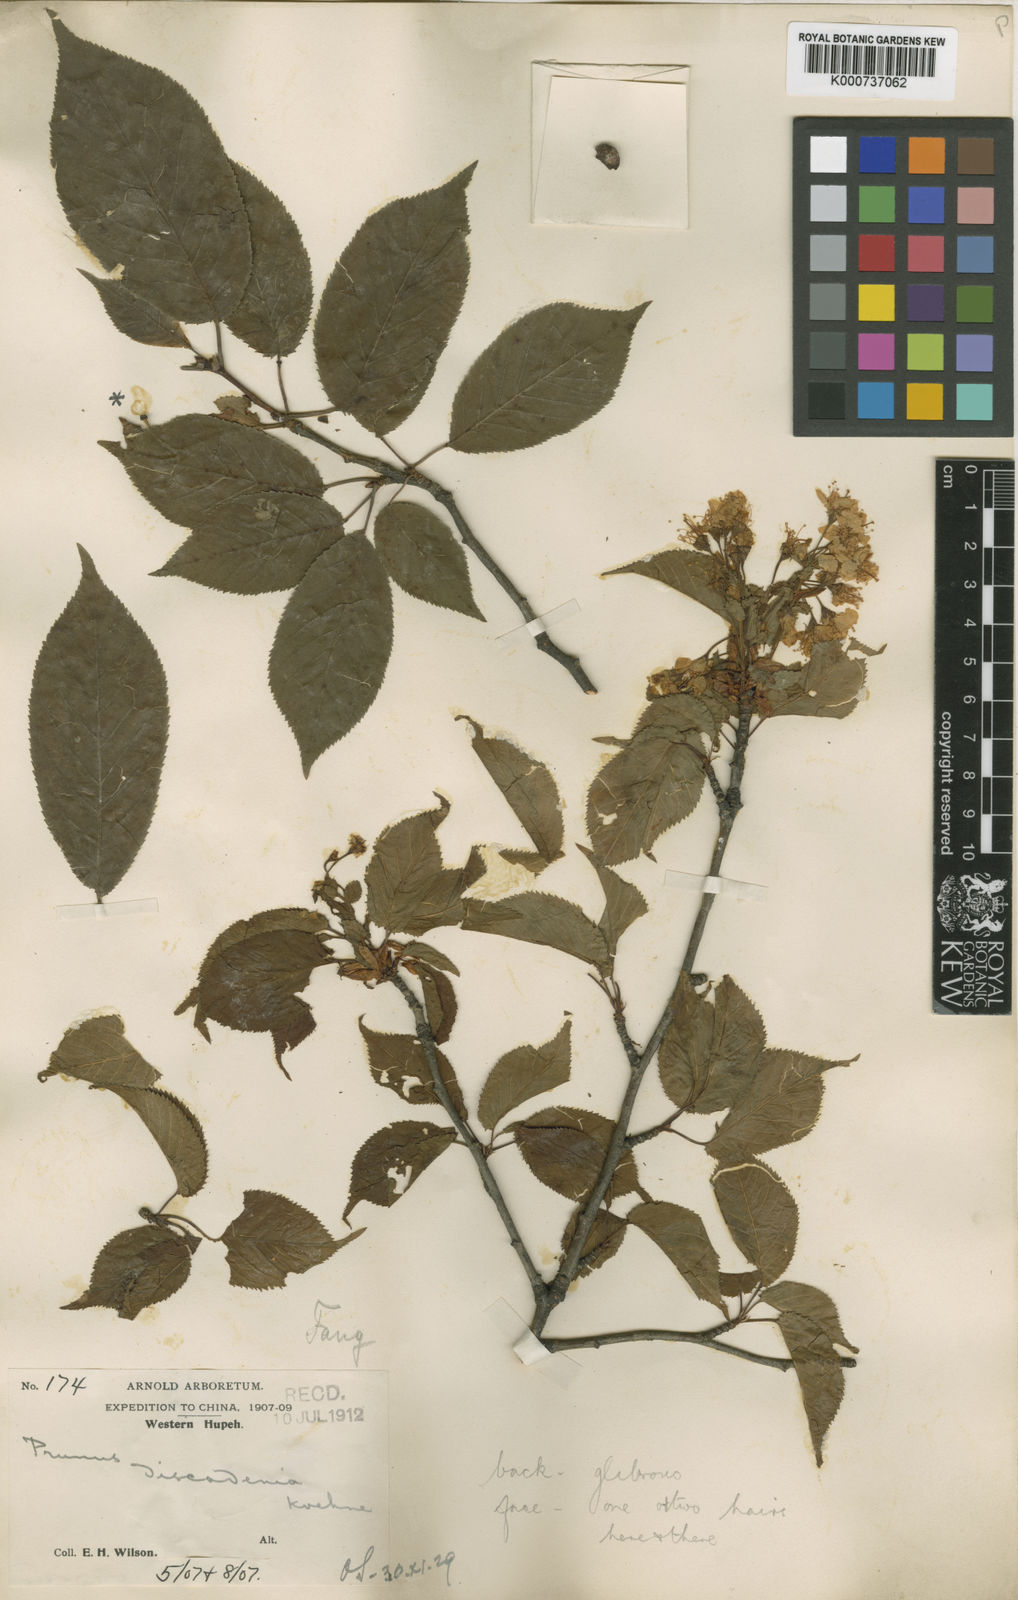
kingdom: Plantae
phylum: Tracheophyta
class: Magnoliopsida
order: Rosales
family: Rosaceae
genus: Prunus
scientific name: Prunus discadenia
